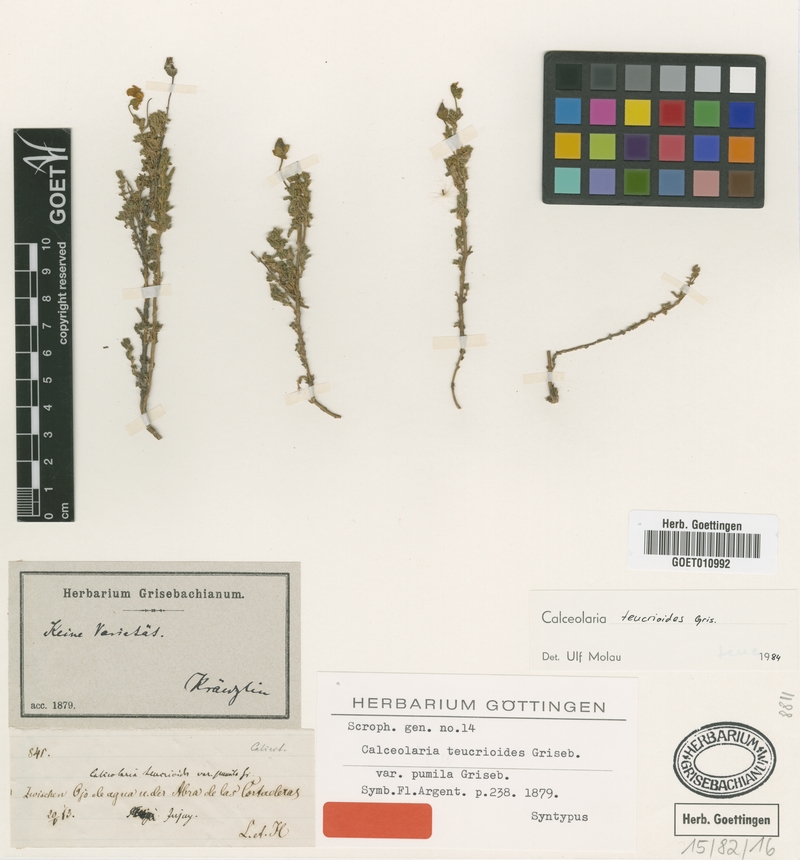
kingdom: Plantae
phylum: Tracheophyta
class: Magnoliopsida
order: Lamiales
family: Calceolariaceae
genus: Calceolaria
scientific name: Calceolaria teucrioides
